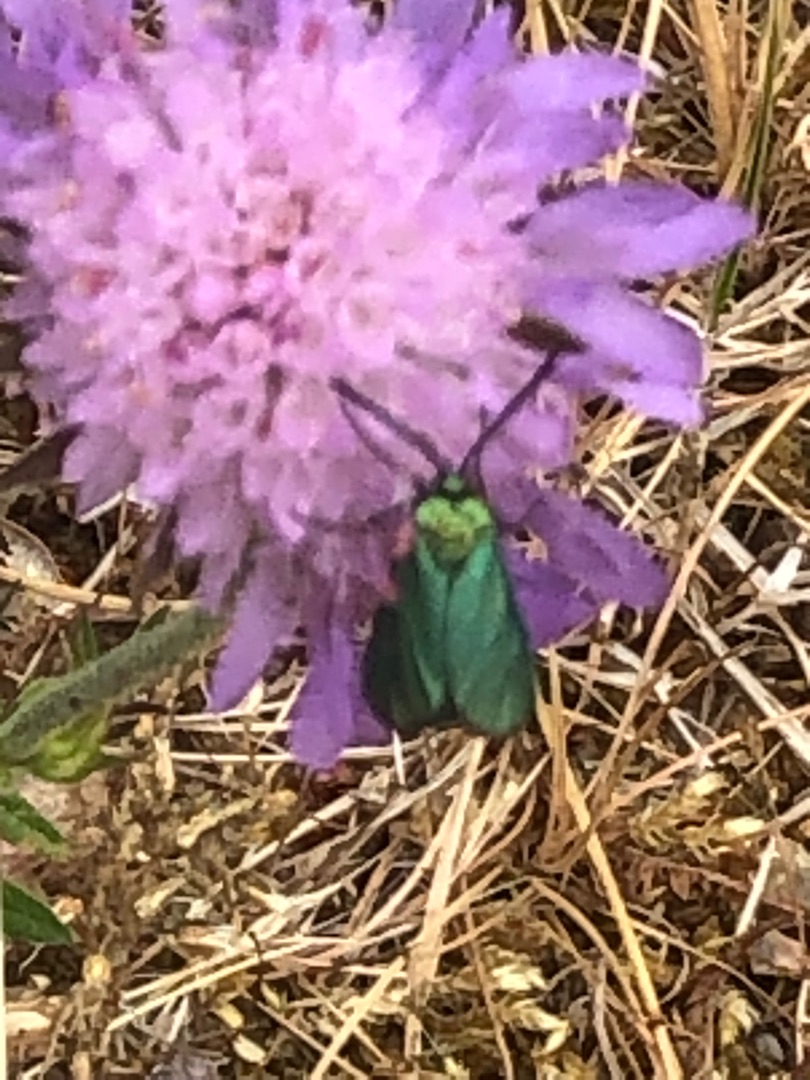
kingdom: Animalia
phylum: Arthropoda
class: Insecta
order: Lepidoptera
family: Zygaenidae
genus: Adscita
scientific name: Adscita statices
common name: Metalvinge
